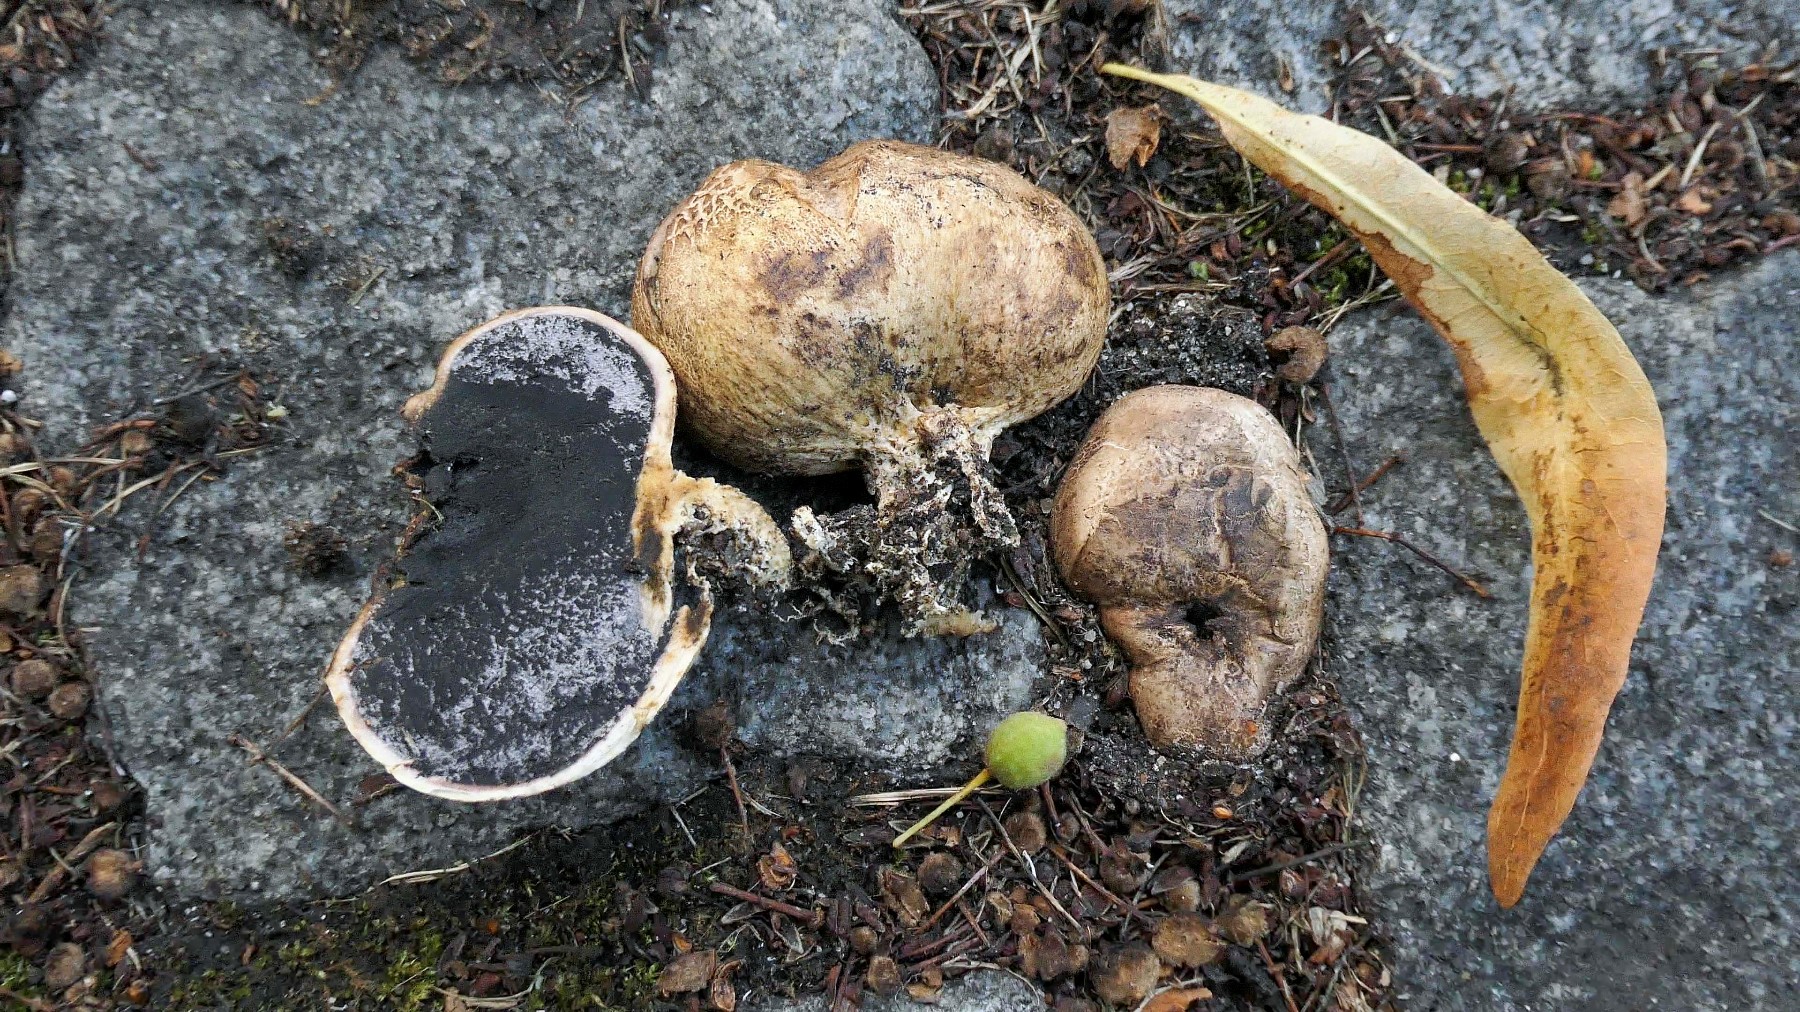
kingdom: Fungi
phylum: Basidiomycota
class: Agaricomycetes
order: Boletales
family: Sclerodermataceae
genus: Scleroderma
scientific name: Scleroderma bovista
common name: bovist-bruskbold
